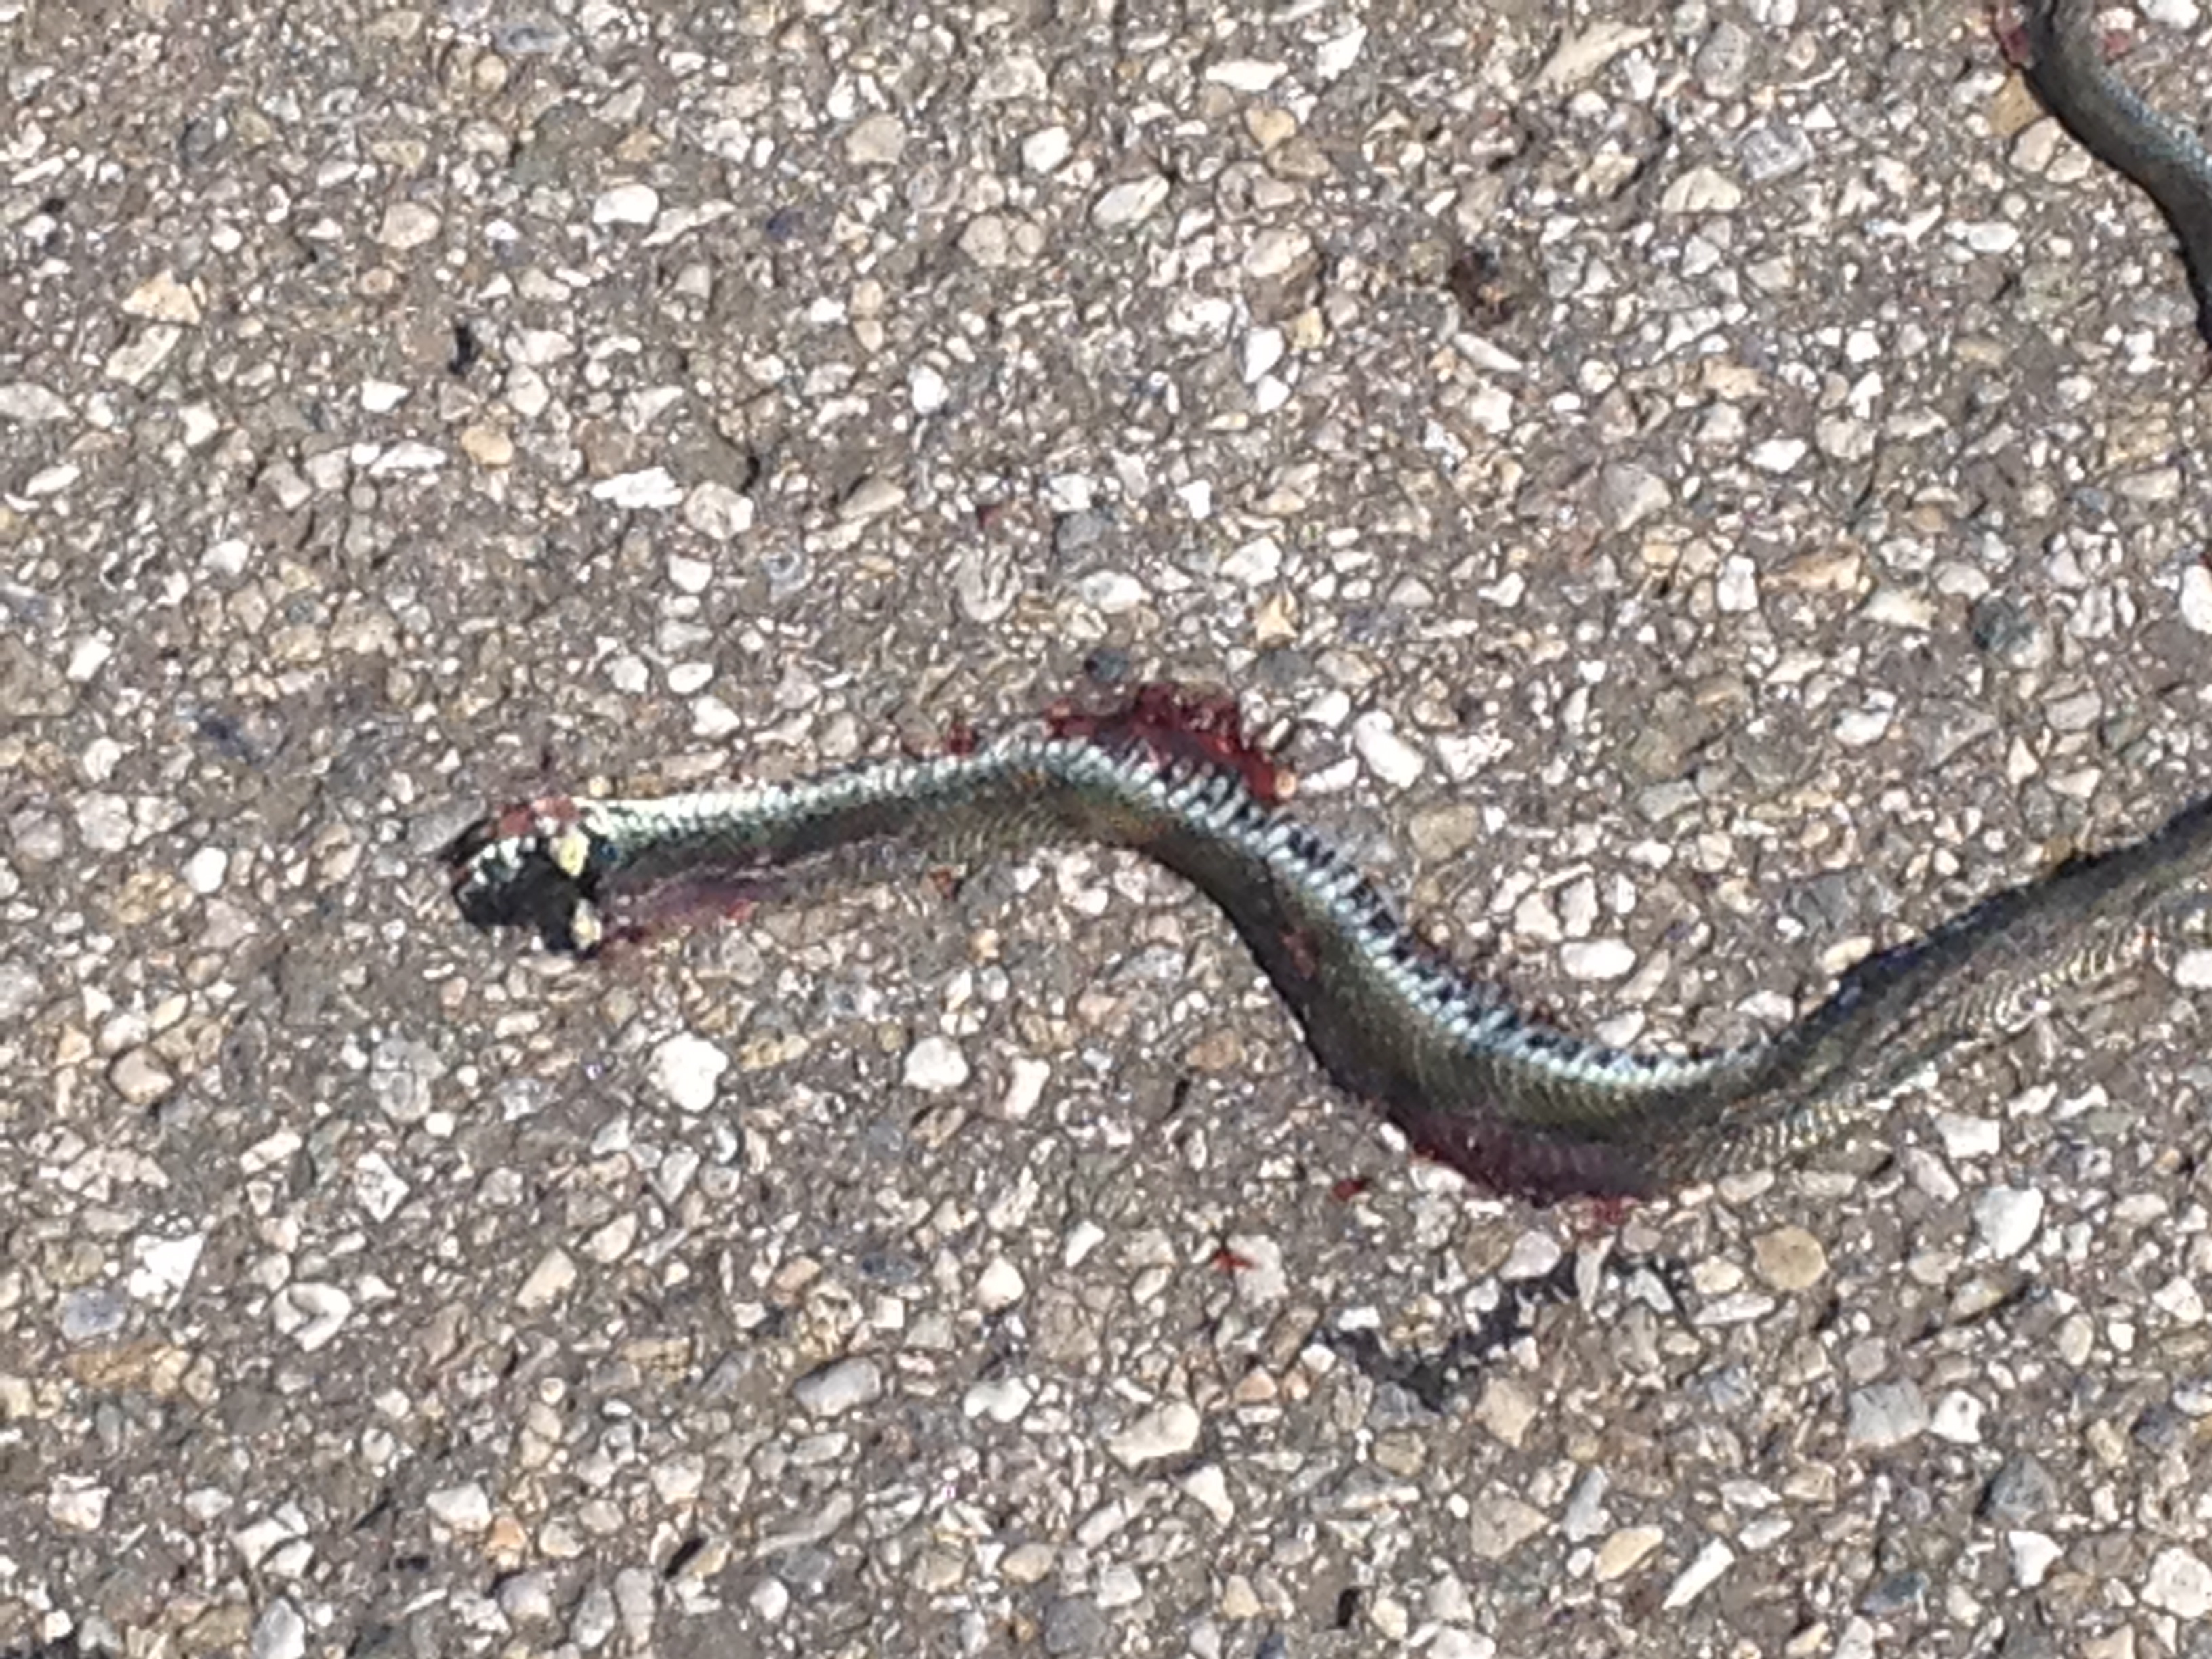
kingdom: Animalia
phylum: Chordata
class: Squamata
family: Colubridae
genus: Natrix
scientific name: Natrix natrix
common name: Grass snake
